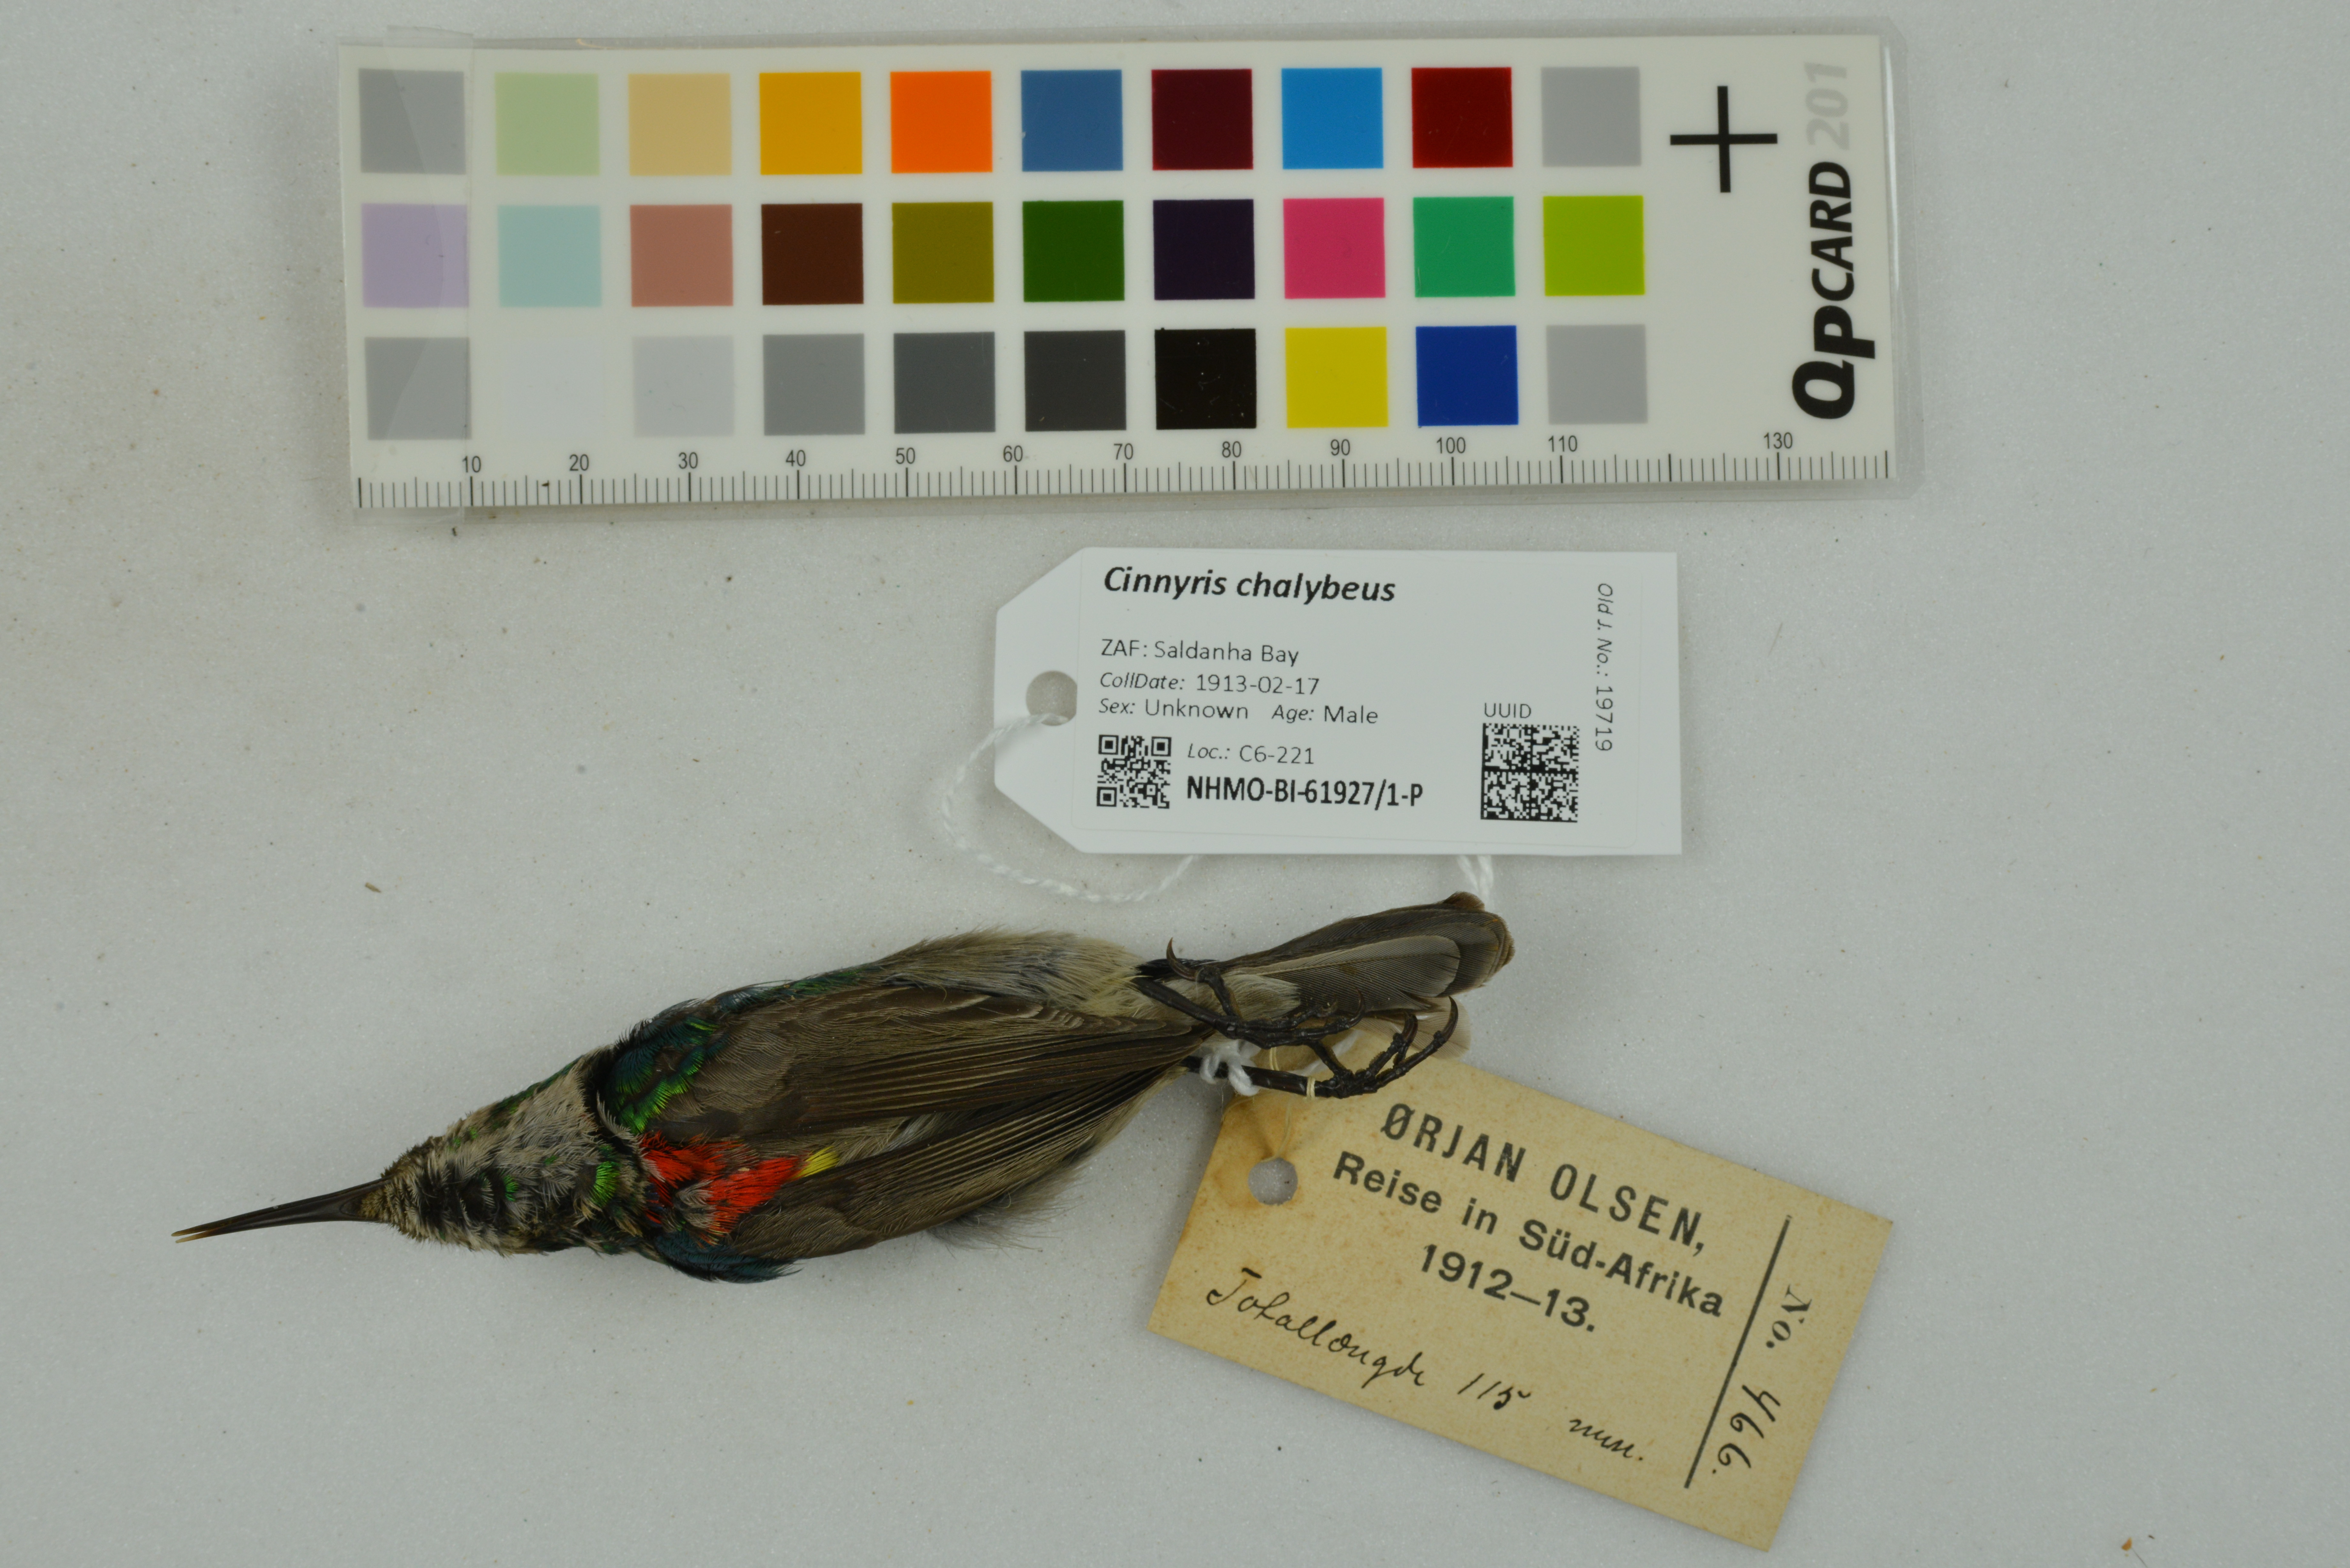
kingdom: Animalia
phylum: Chordata
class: Aves
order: Passeriformes
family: Nectariniidae
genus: Cinnyris
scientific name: Cinnyris chalybeus
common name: Southern double-collared sunbird
